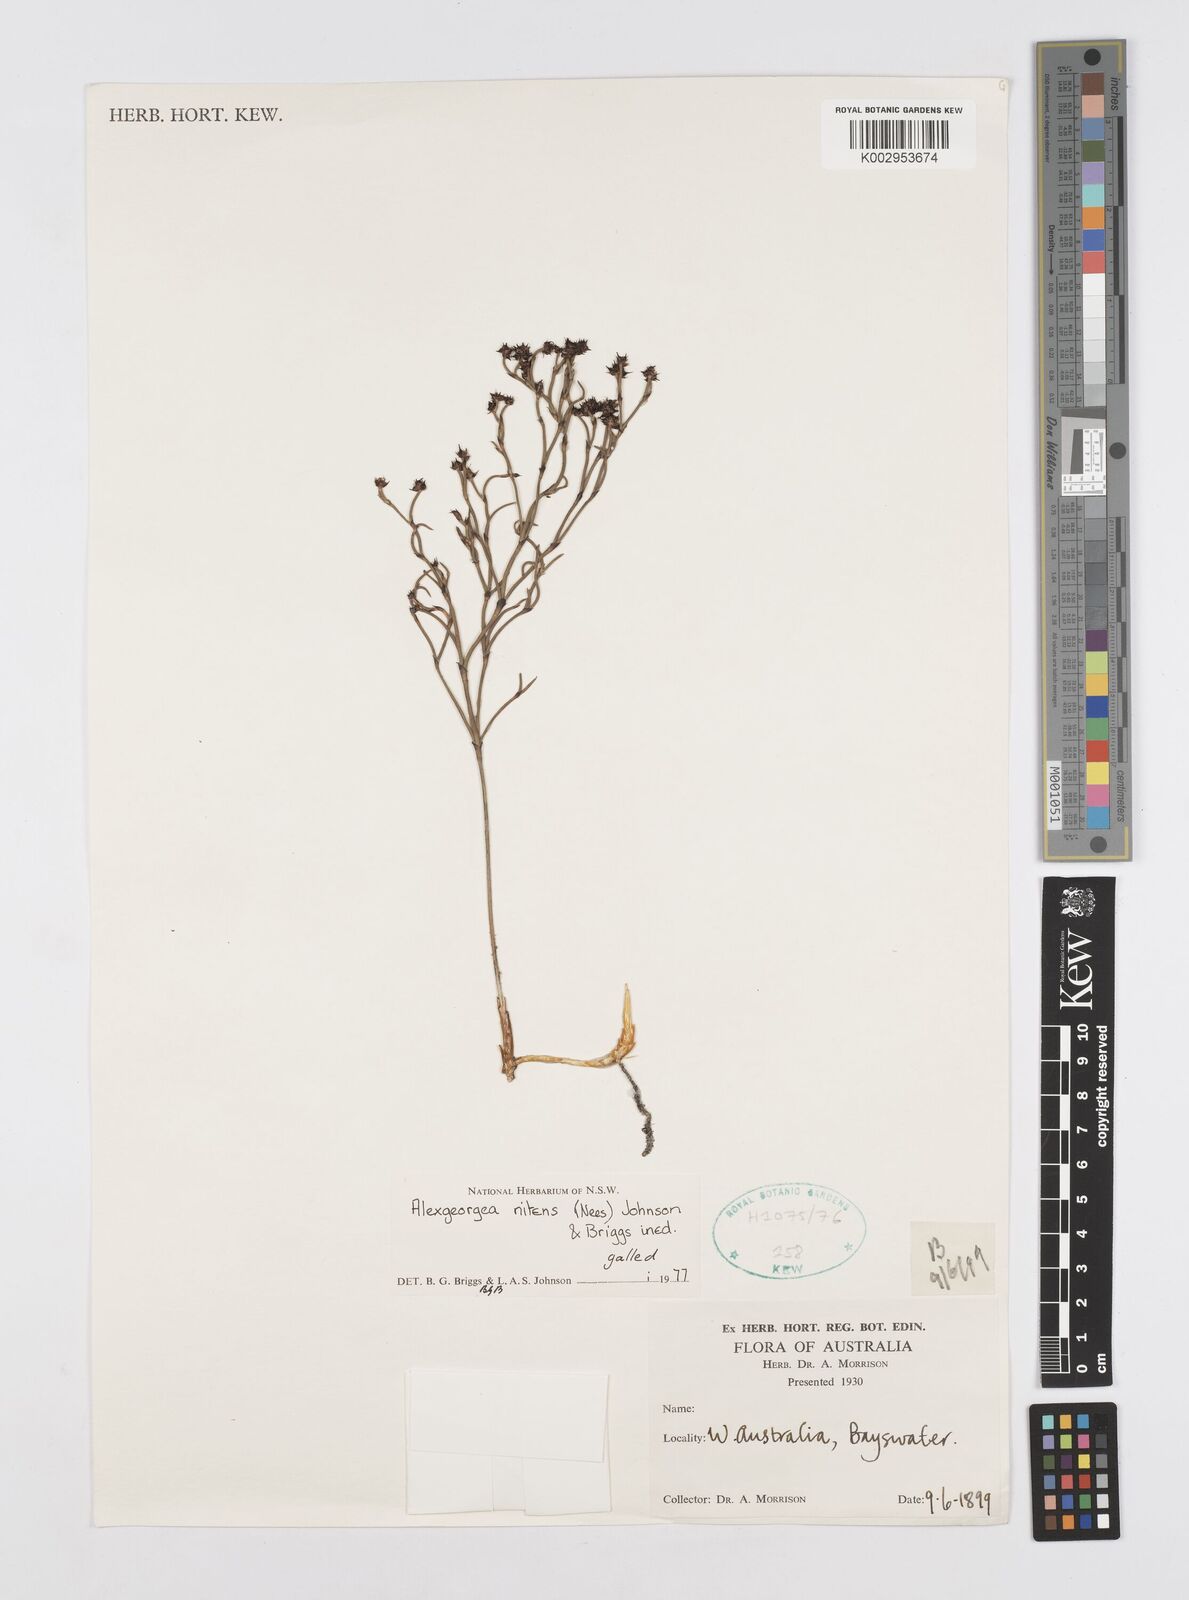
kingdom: Plantae
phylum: Tracheophyta
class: Liliopsida
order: Poales
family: Restionaceae
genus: Alexgeorgea
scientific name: Alexgeorgea nitens
